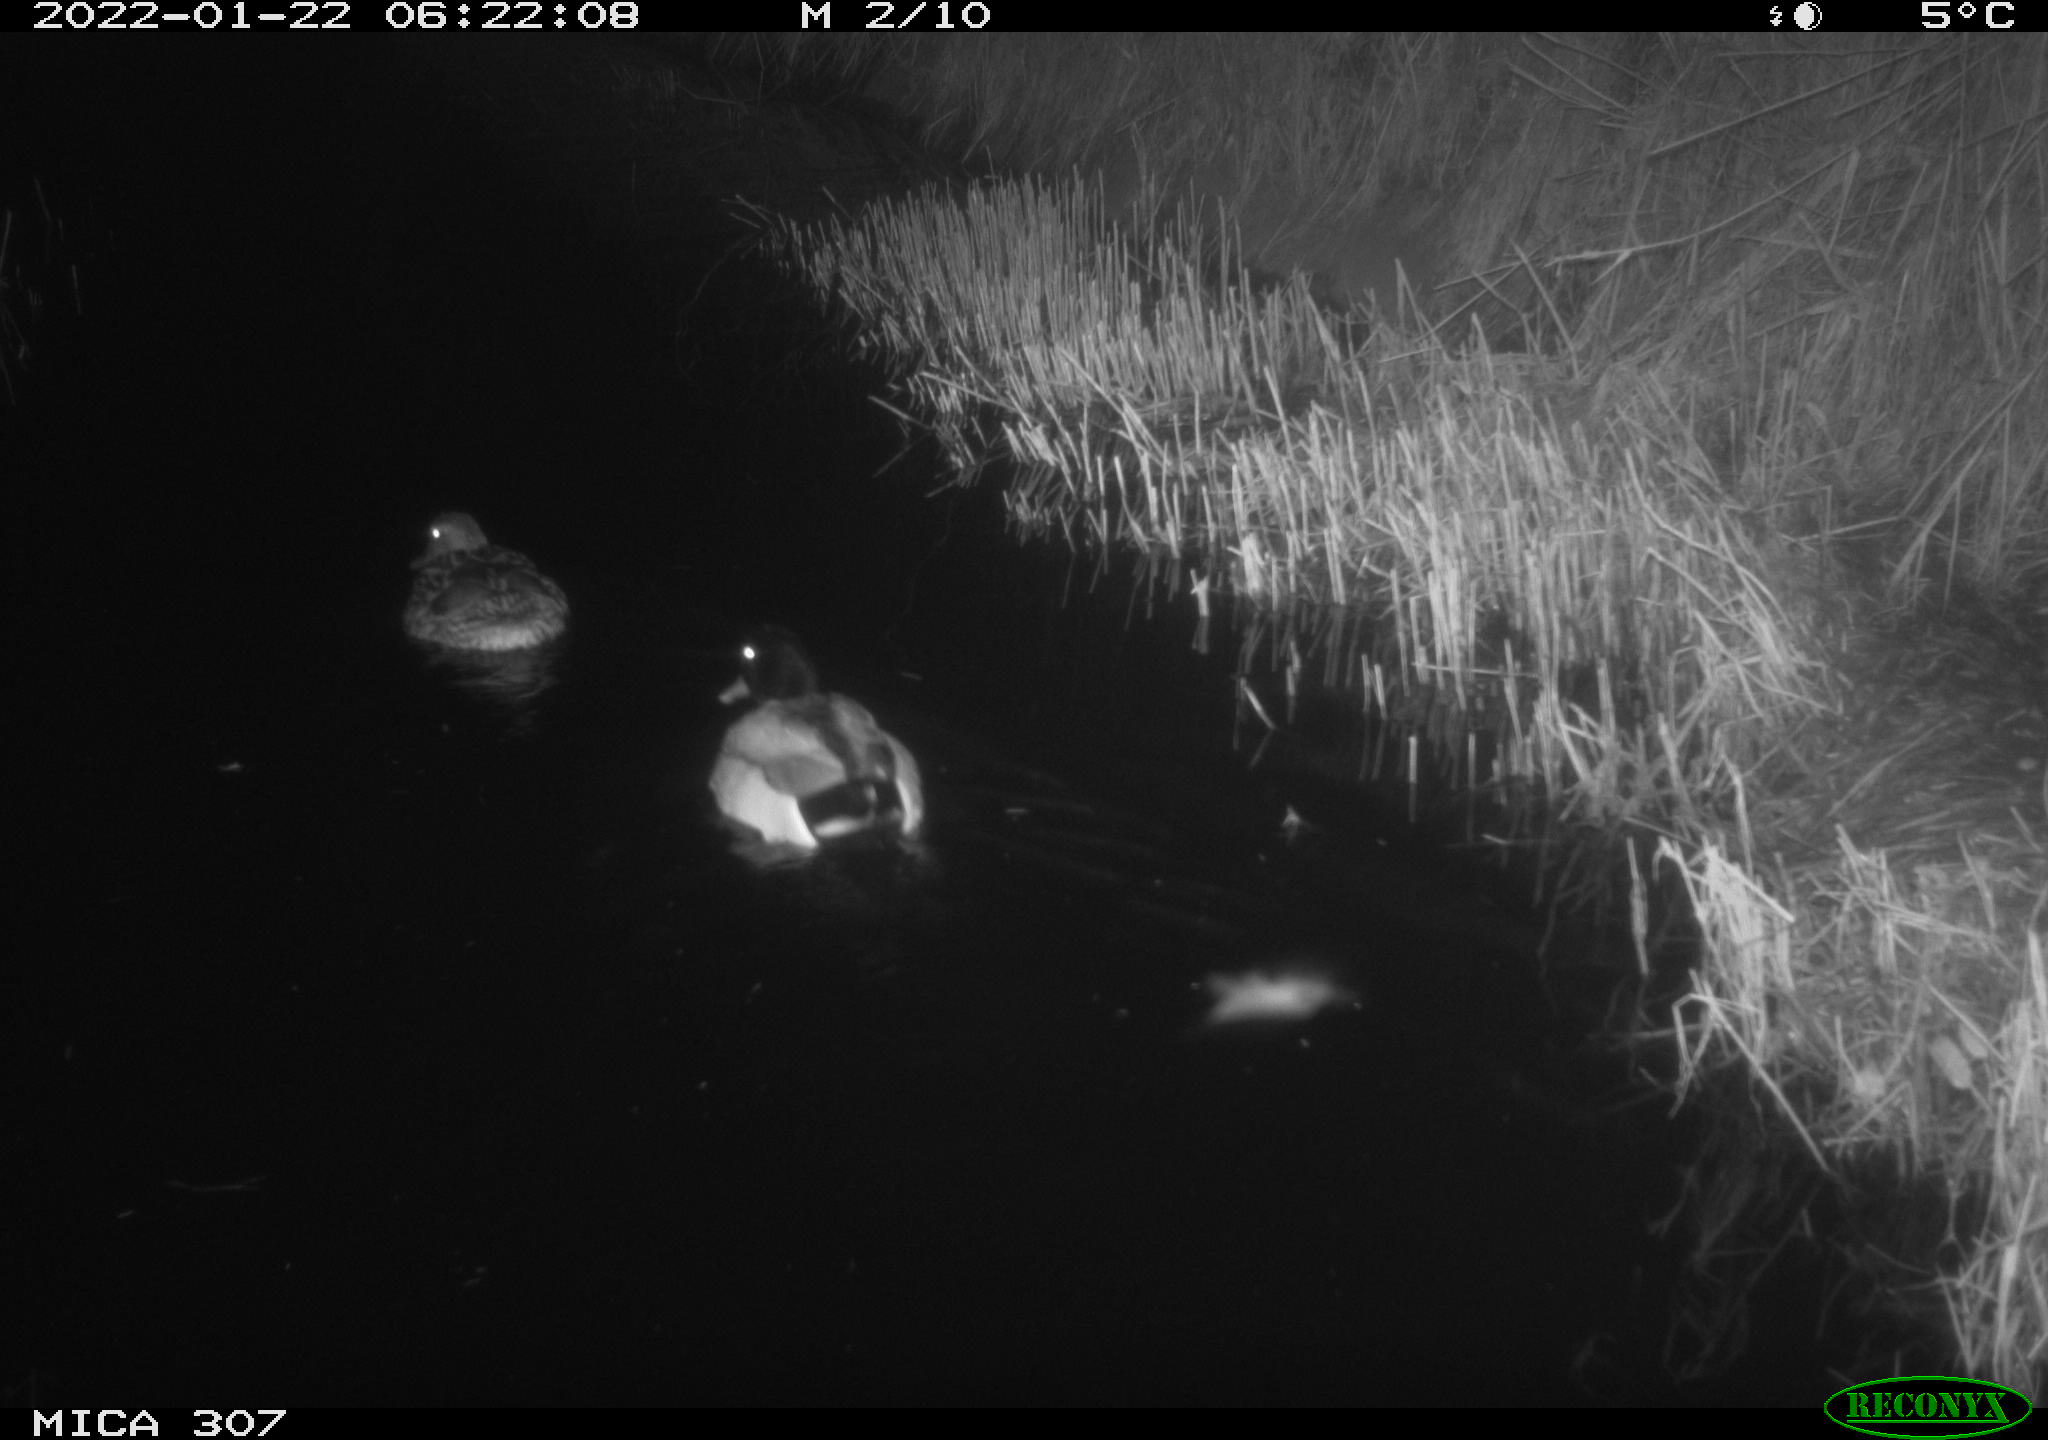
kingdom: Animalia
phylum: Chordata
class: Aves
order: Anseriformes
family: Anatidae
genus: Anas
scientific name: Anas
